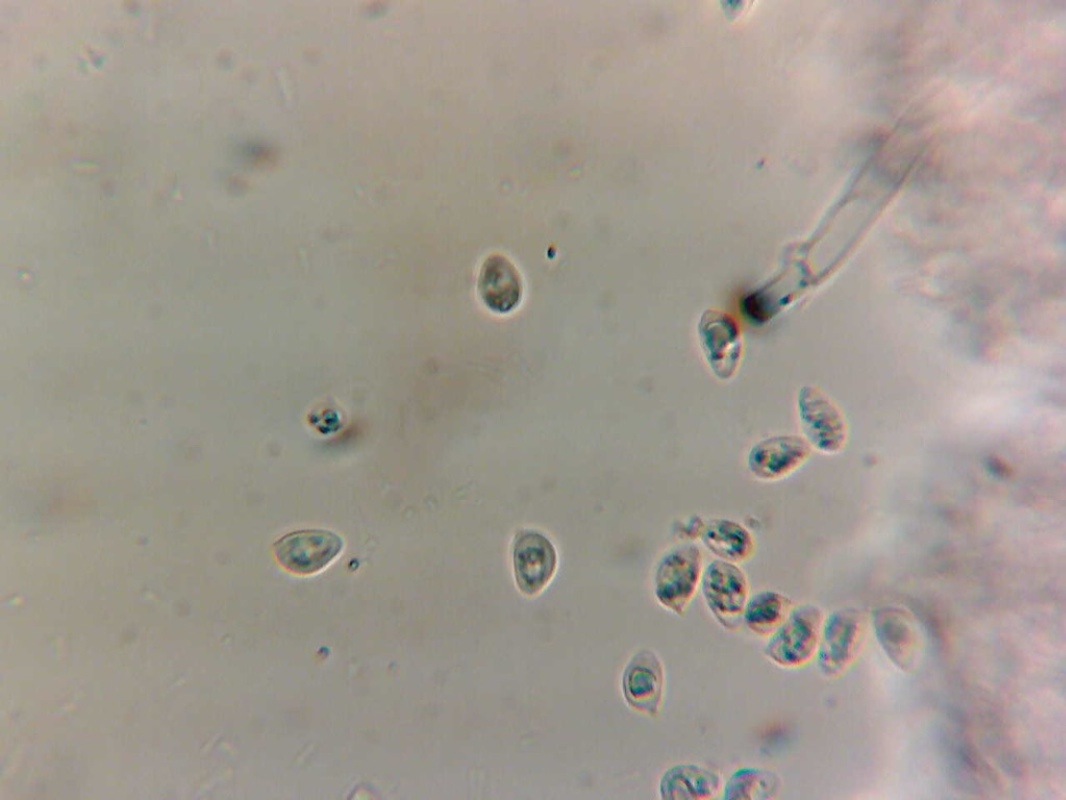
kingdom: Fungi
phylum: Basidiomycota
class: Agaricomycetes
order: Agaricales
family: Tubariaceae
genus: Tubaria
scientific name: Tubaria
